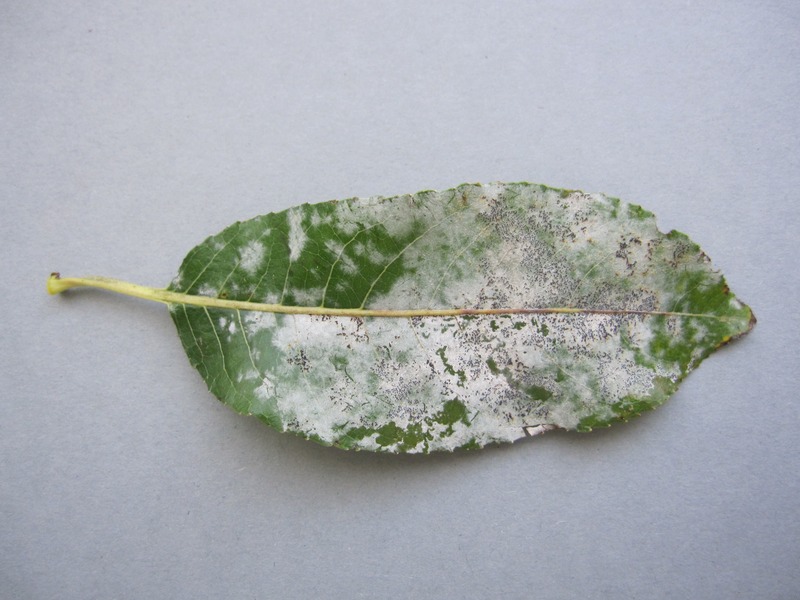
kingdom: Fungi
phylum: Ascomycota
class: Leotiomycetes
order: Helotiales
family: Erysiphaceae
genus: Erysiphe
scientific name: Erysiphe adunca
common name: Willow mildew
